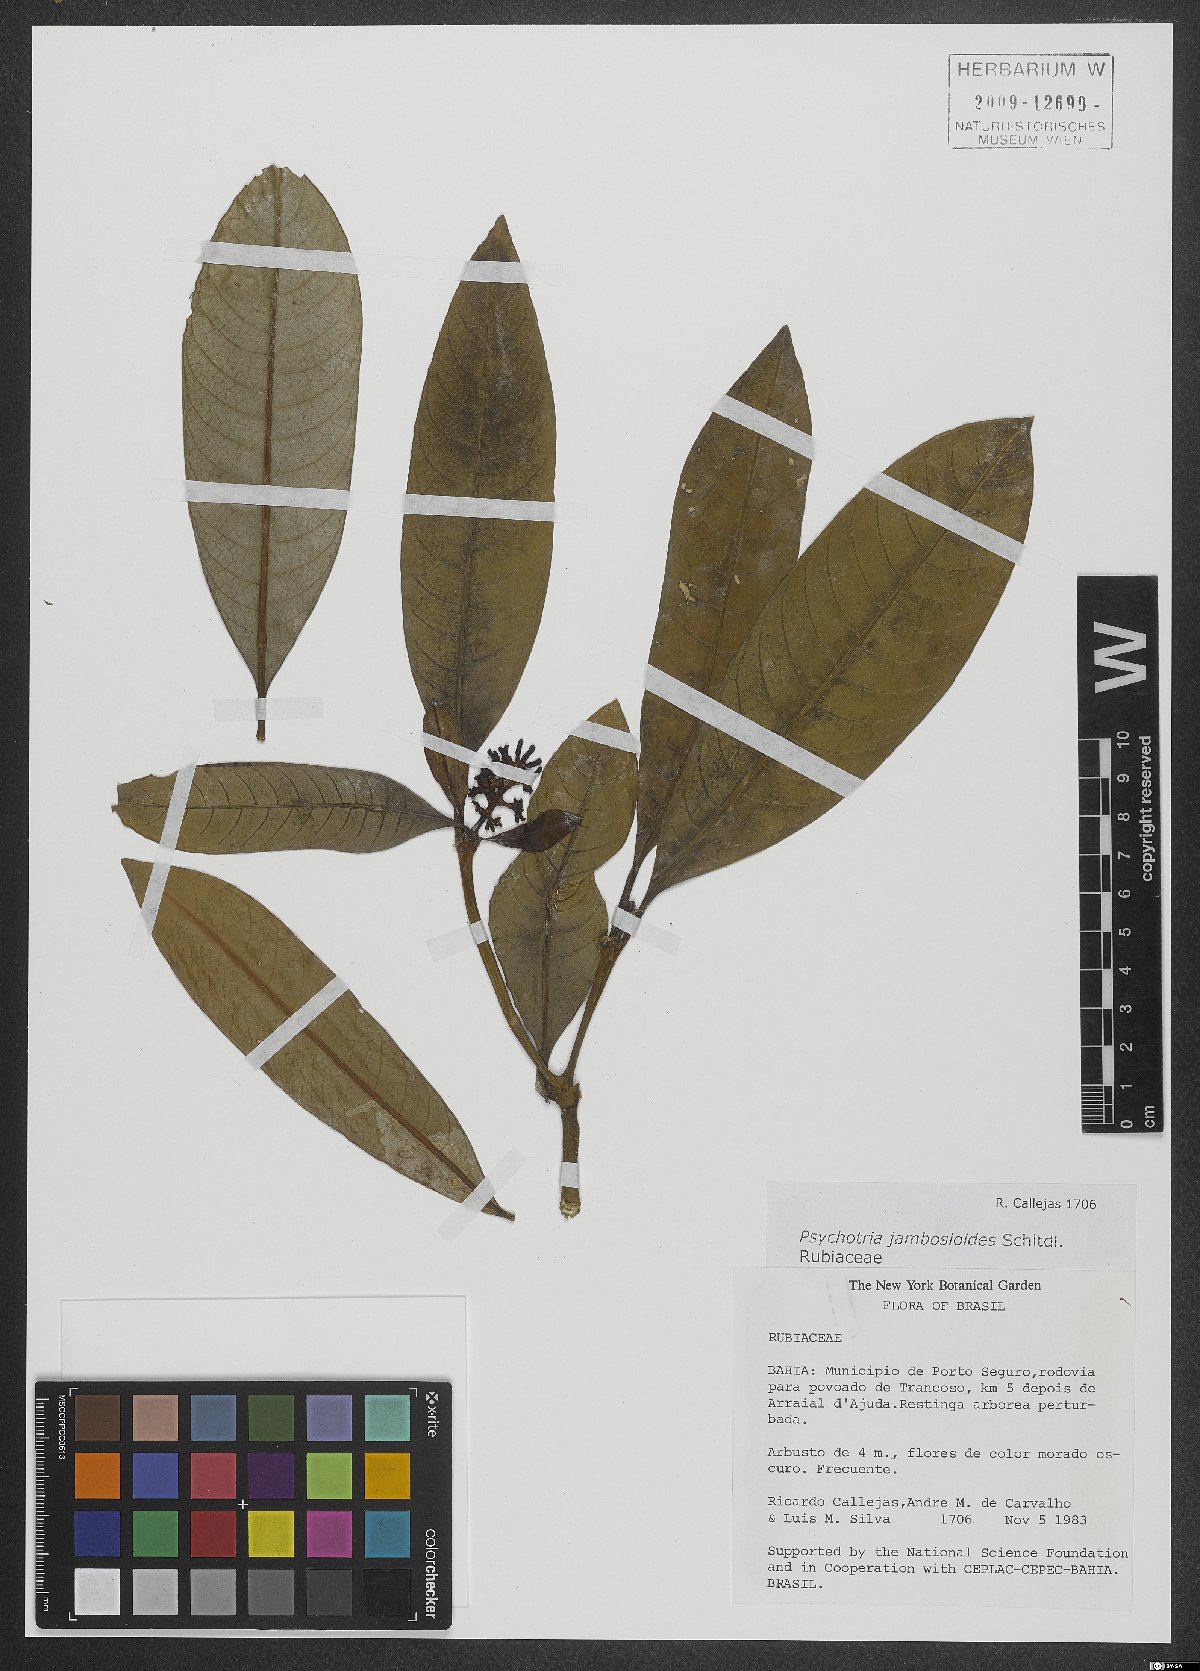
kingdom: Plantae
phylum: Tracheophyta
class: Magnoliopsida
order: Gentianales
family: Rubiaceae
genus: Palicourea
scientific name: Palicourea jambosioides
